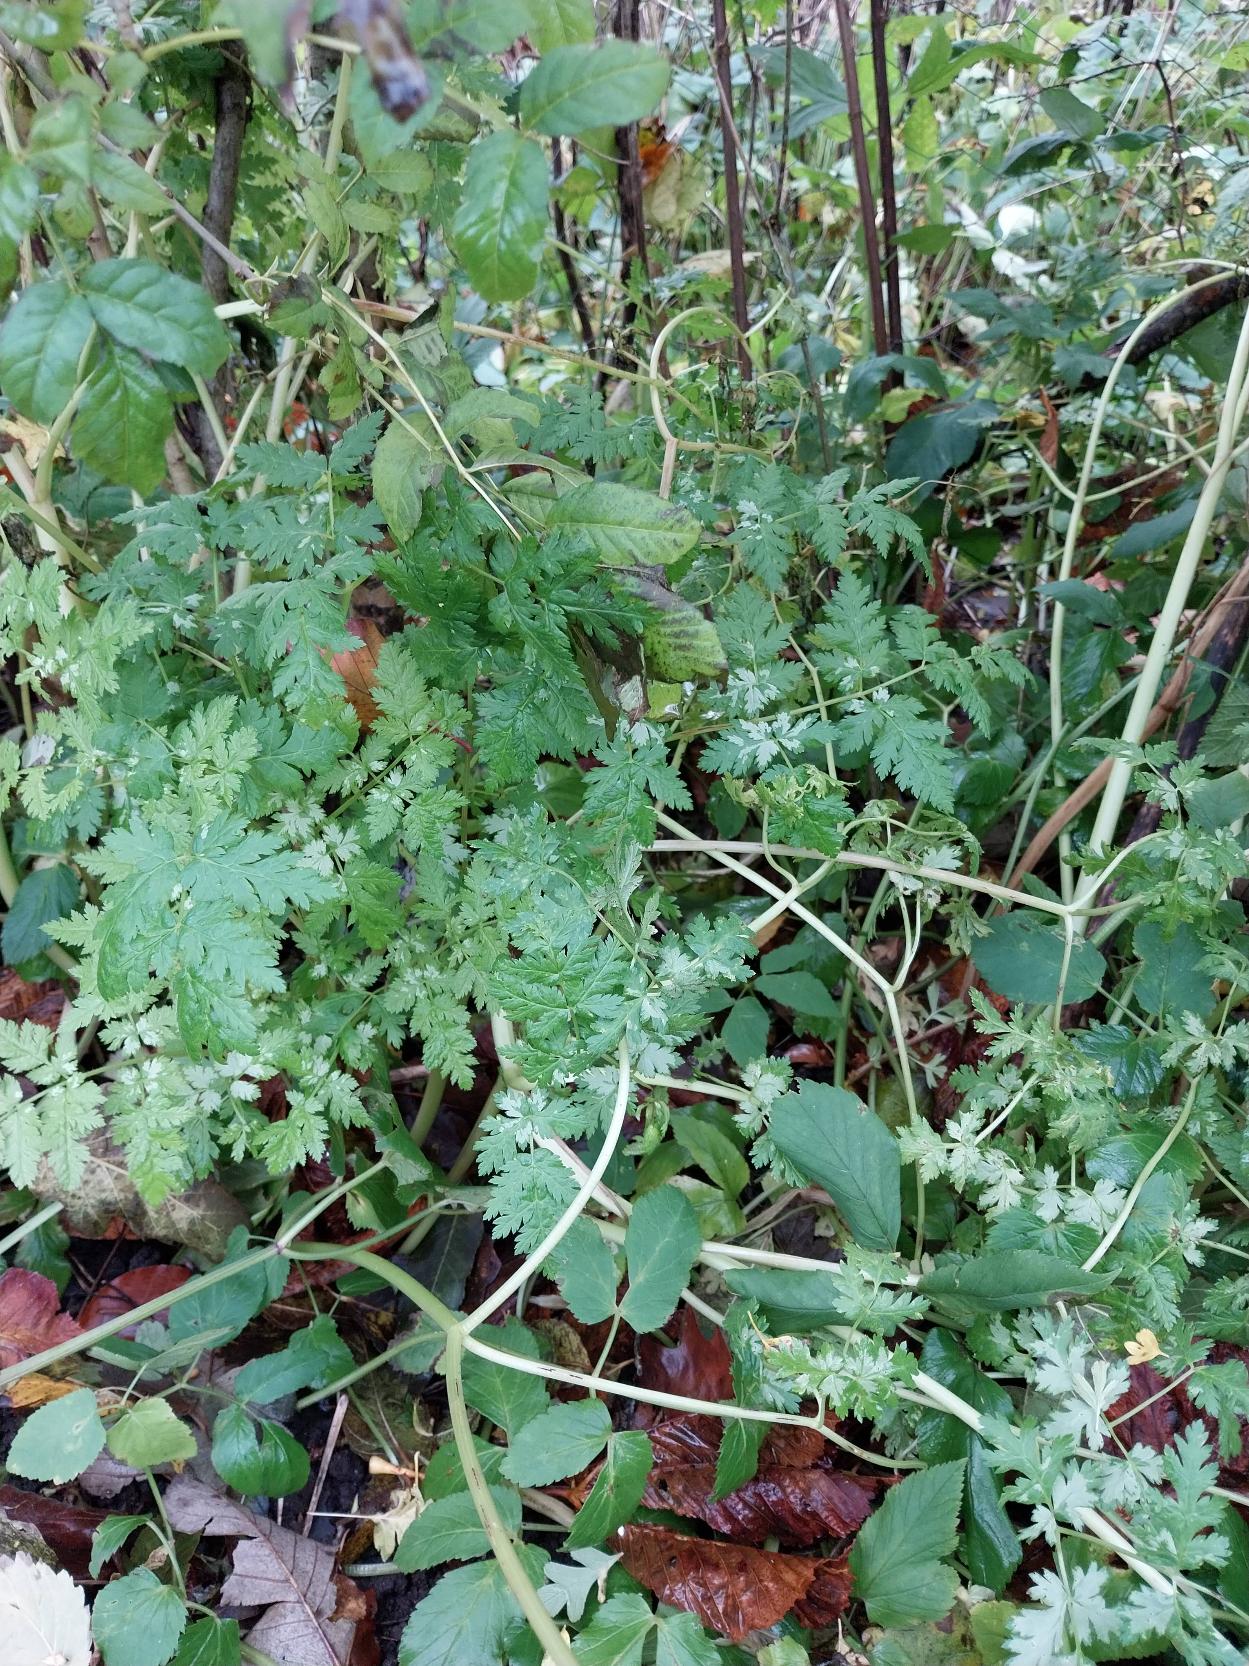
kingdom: Plantae
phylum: Tracheophyta
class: Magnoliopsida
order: Apiales
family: Apiaceae
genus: Myrrhis
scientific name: Myrrhis odorata
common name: Sødskærm
